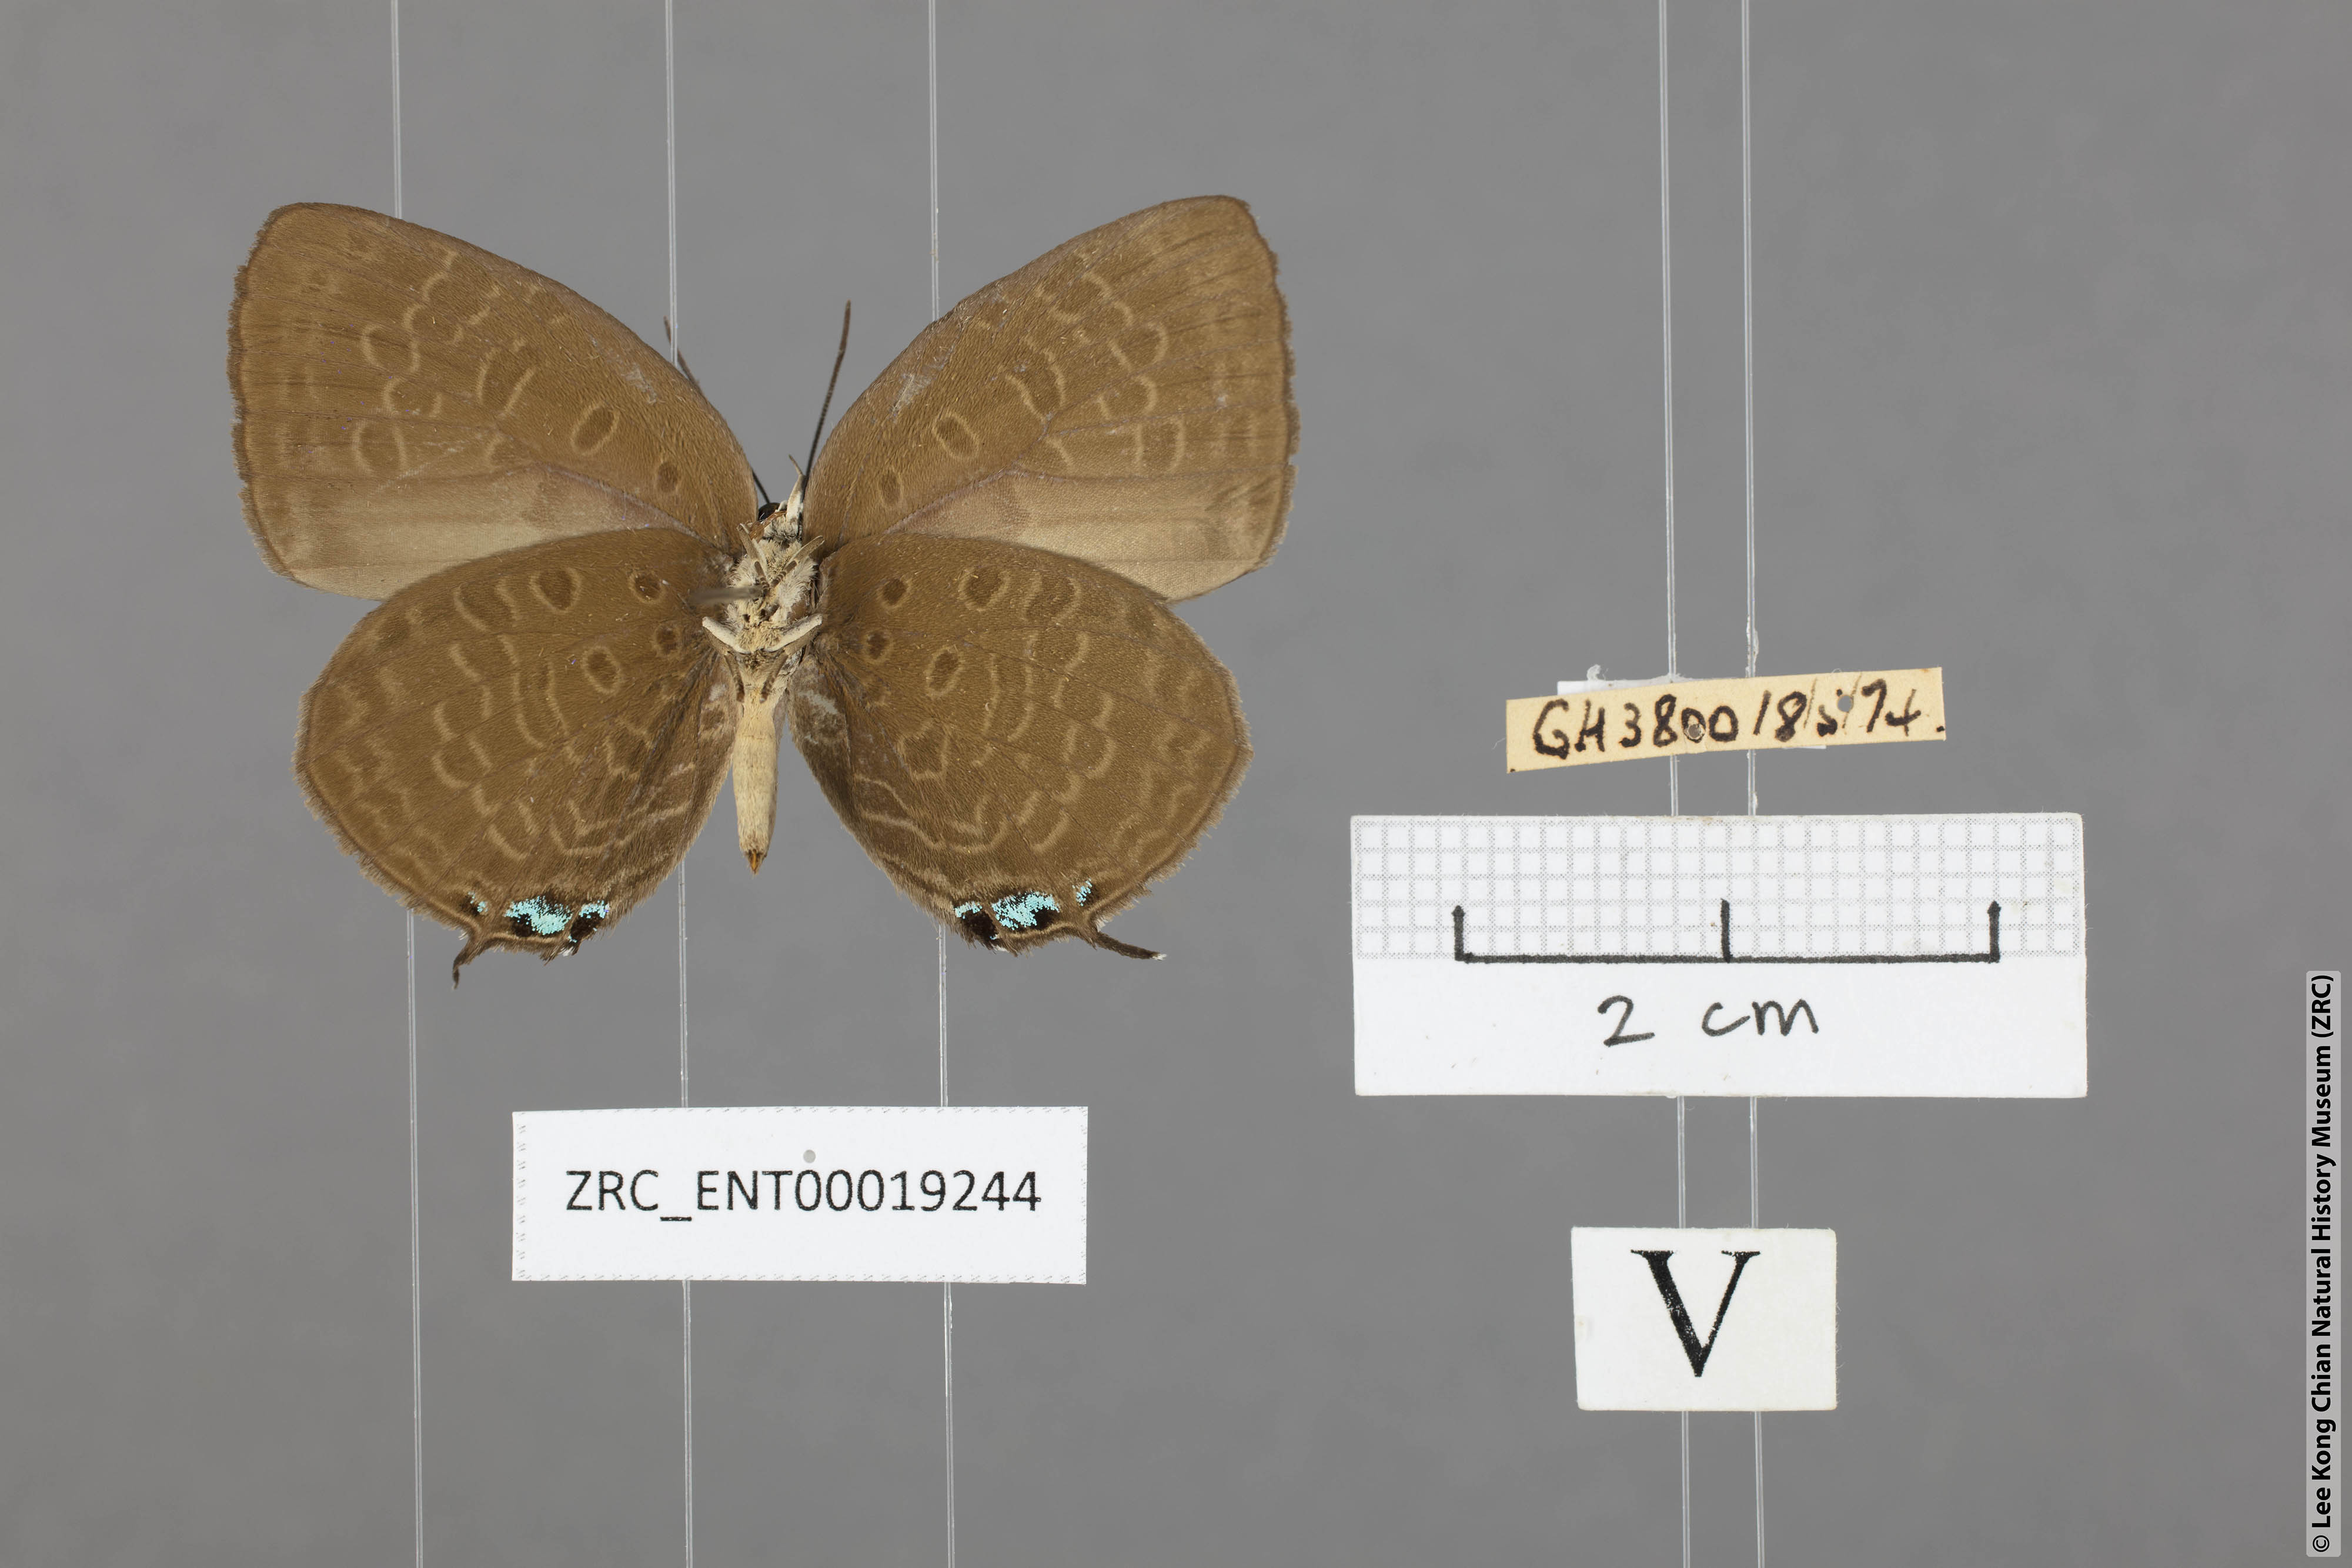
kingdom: Animalia
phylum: Arthropoda
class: Insecta
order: Lepidoptera
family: Lycaenidae
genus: Arhopala
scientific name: Arhopala atosia
